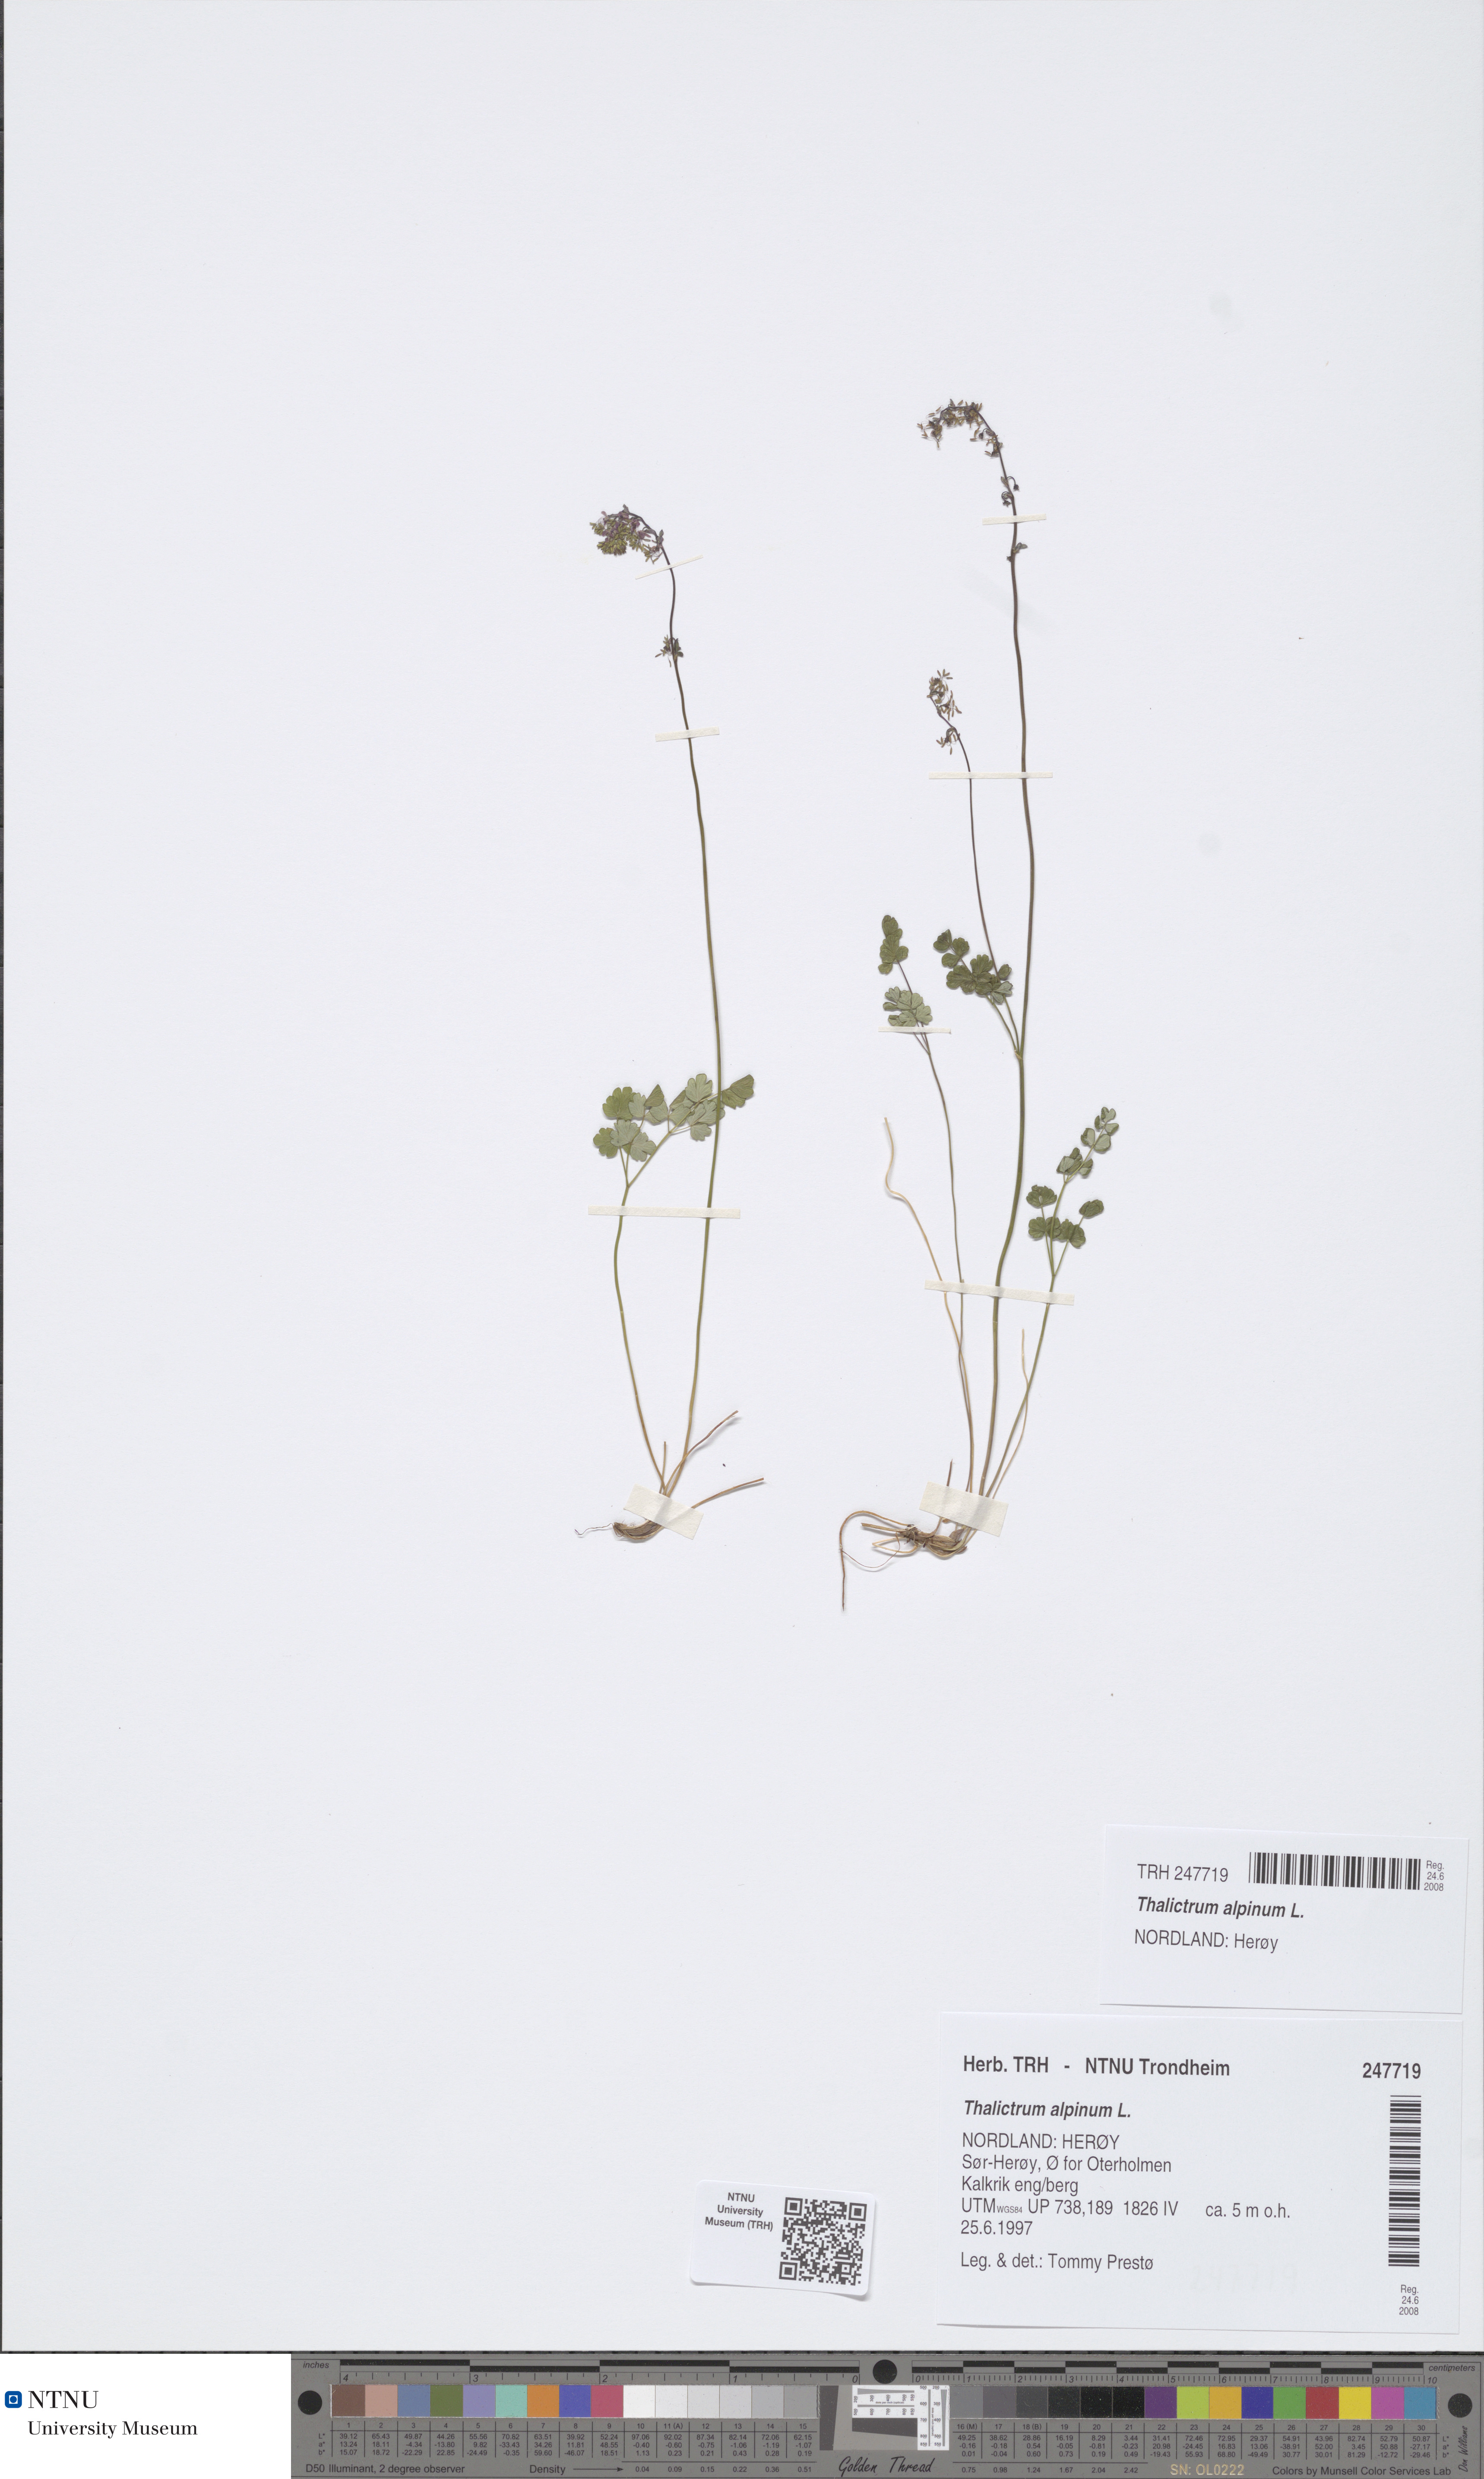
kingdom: Plantae
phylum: Tracheophyta
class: Magnoliopsida
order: Ranunculales
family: Ranunculaceae
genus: Thalictrum
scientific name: Thalictrum alpinum
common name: Alpine meadow-rue
